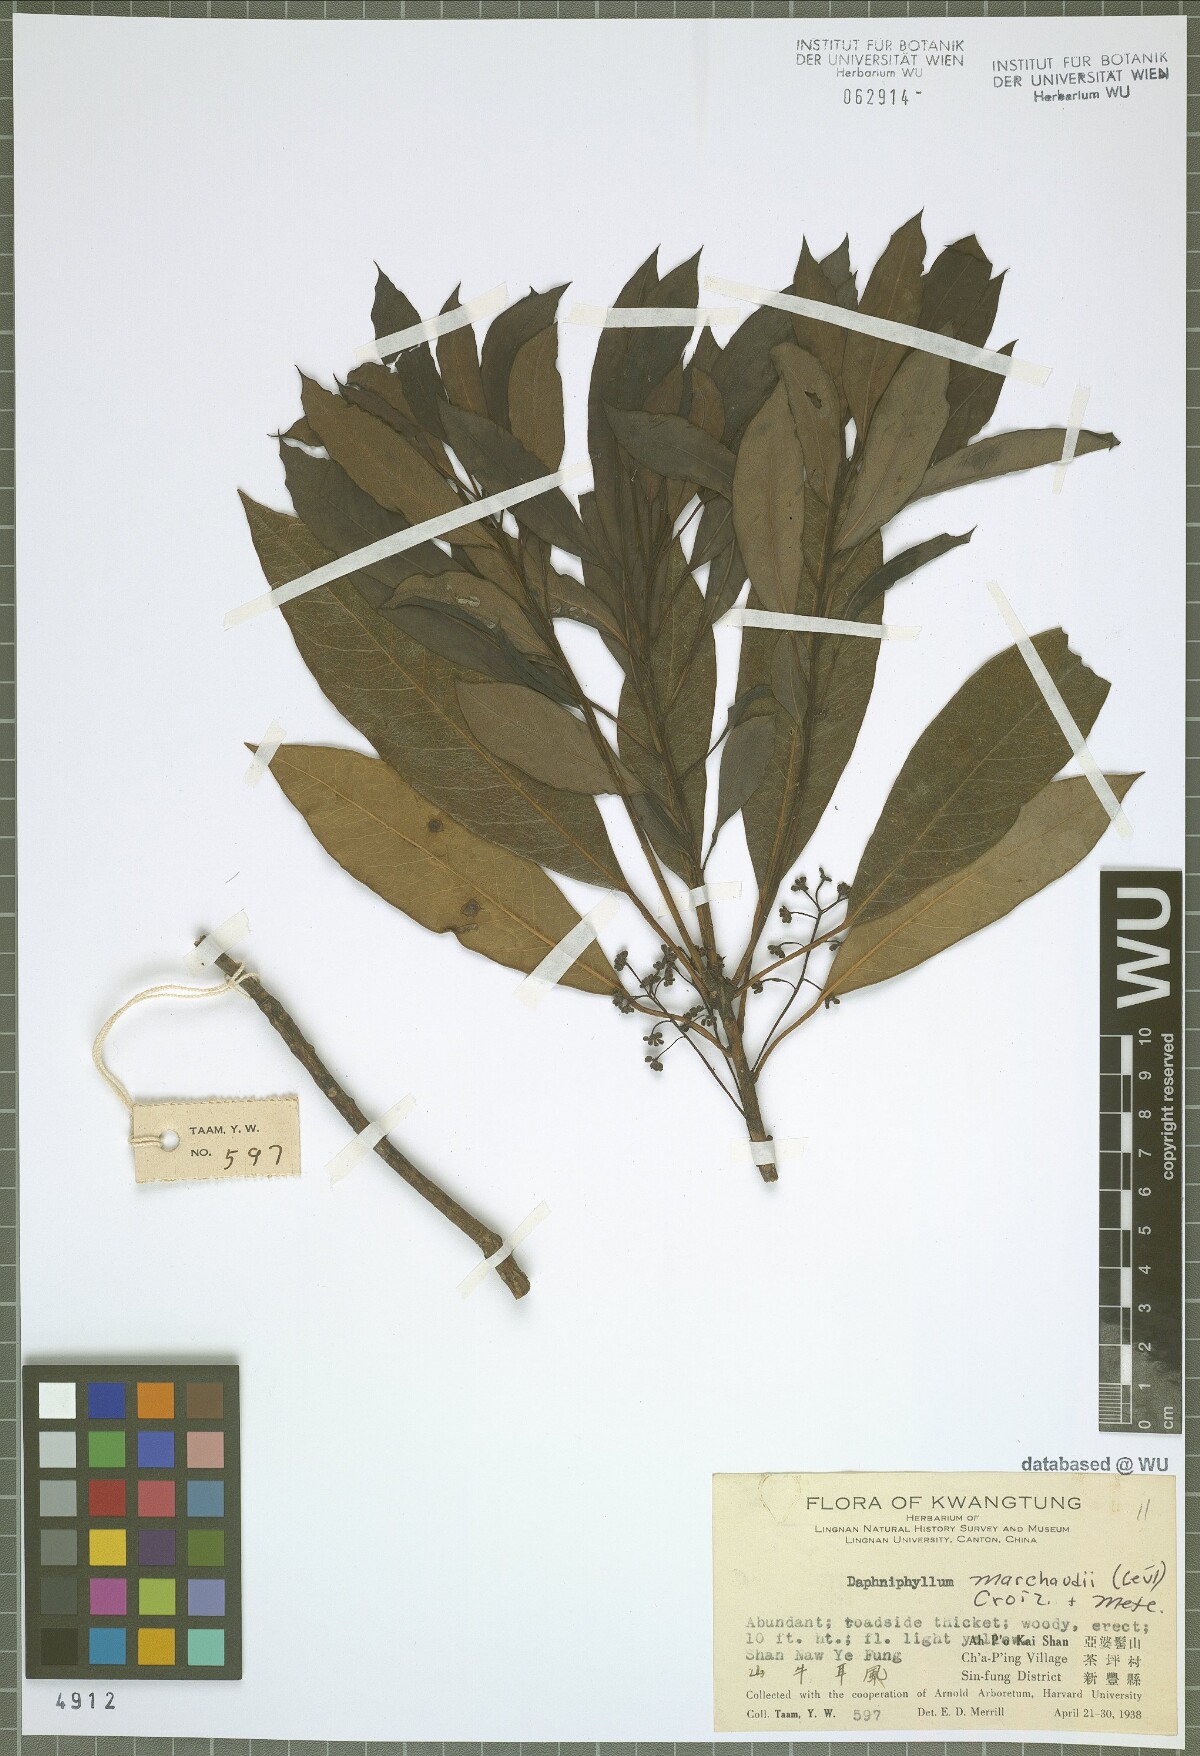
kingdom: Plantae
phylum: Tracheophyta
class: Magnoliopsida
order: Saxifragales
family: Daphniphyllaceae
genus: Daphniphyllum
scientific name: Daphniphyllum pentandrum
